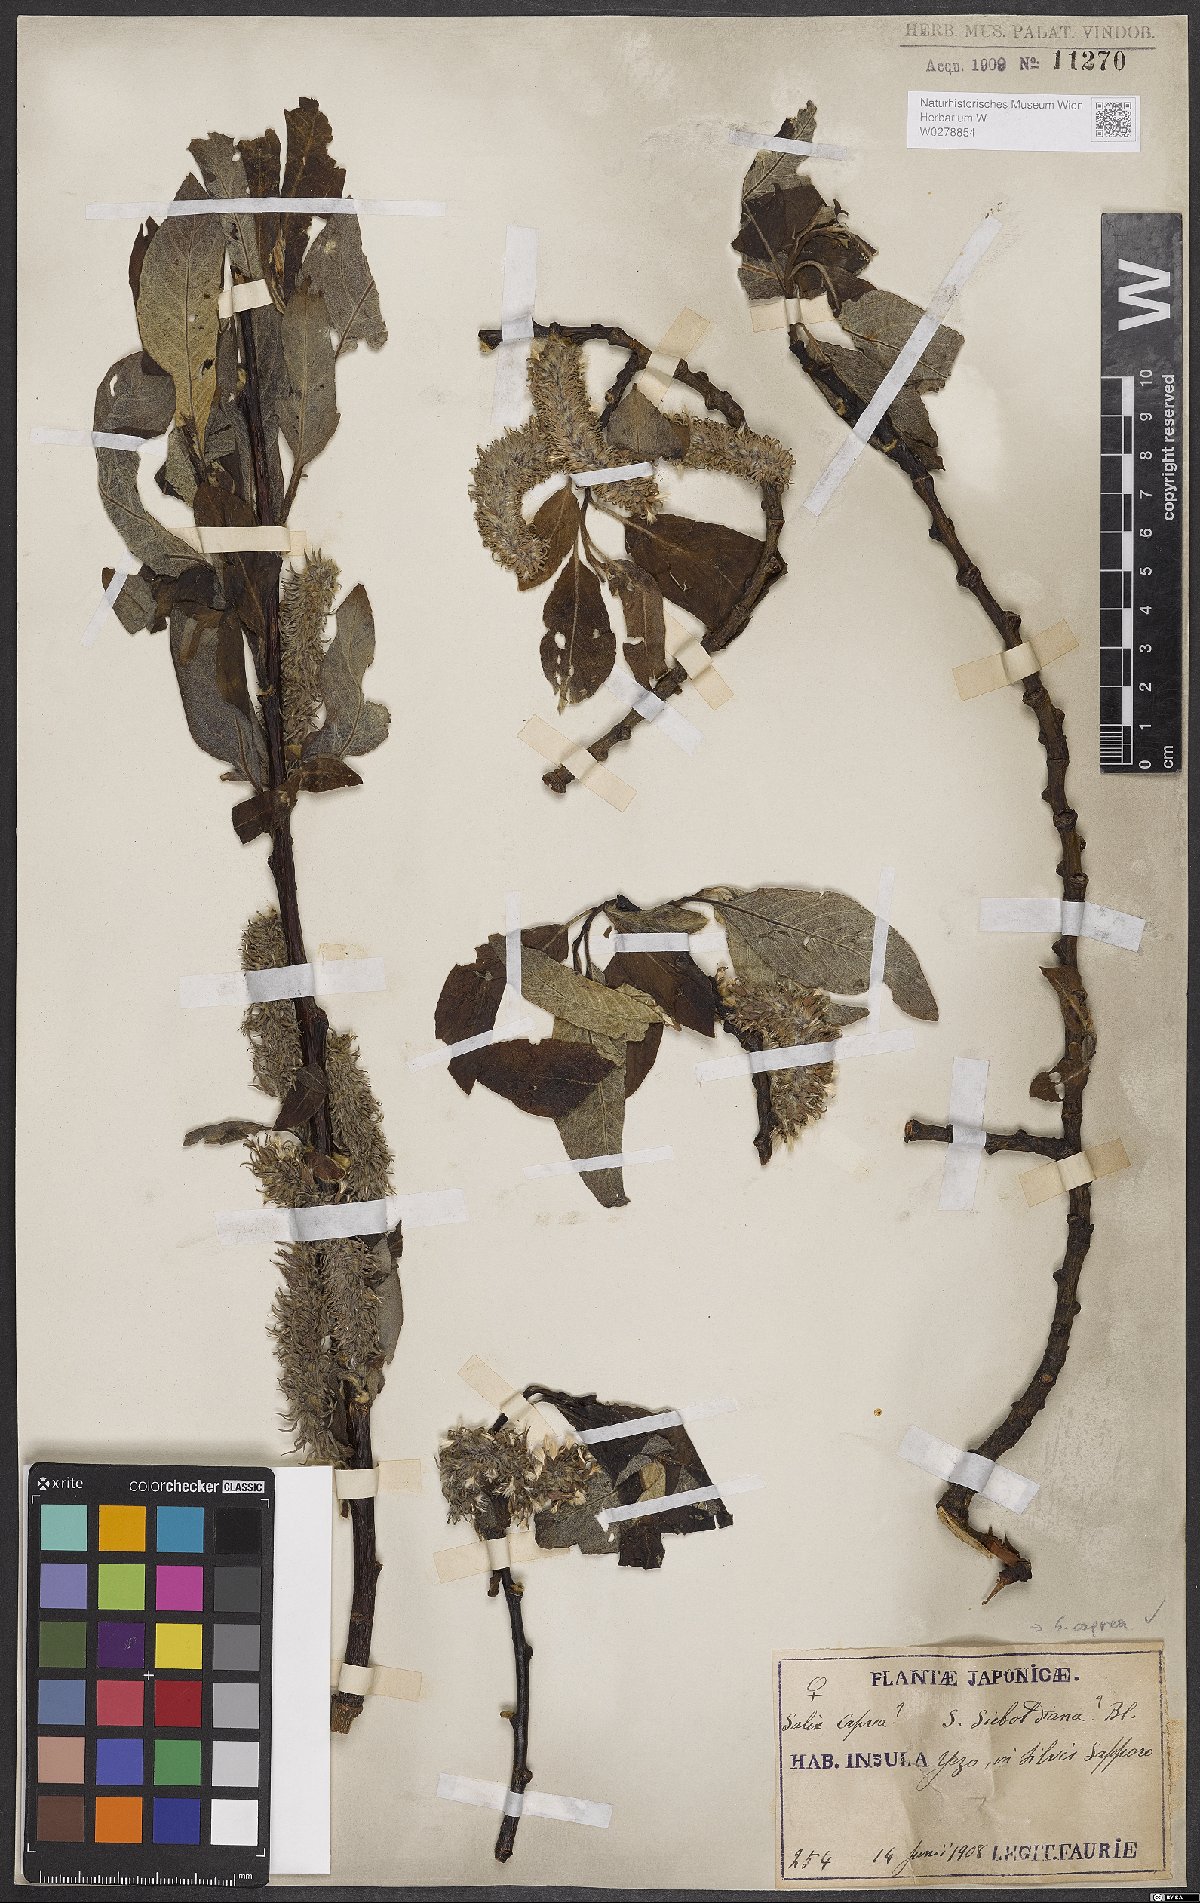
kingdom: Plantae
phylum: Tracheophyta
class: Magnoliopsida
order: Malpighiales
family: Salicaceae
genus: Salix
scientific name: Salix caprea
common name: Goat willow
